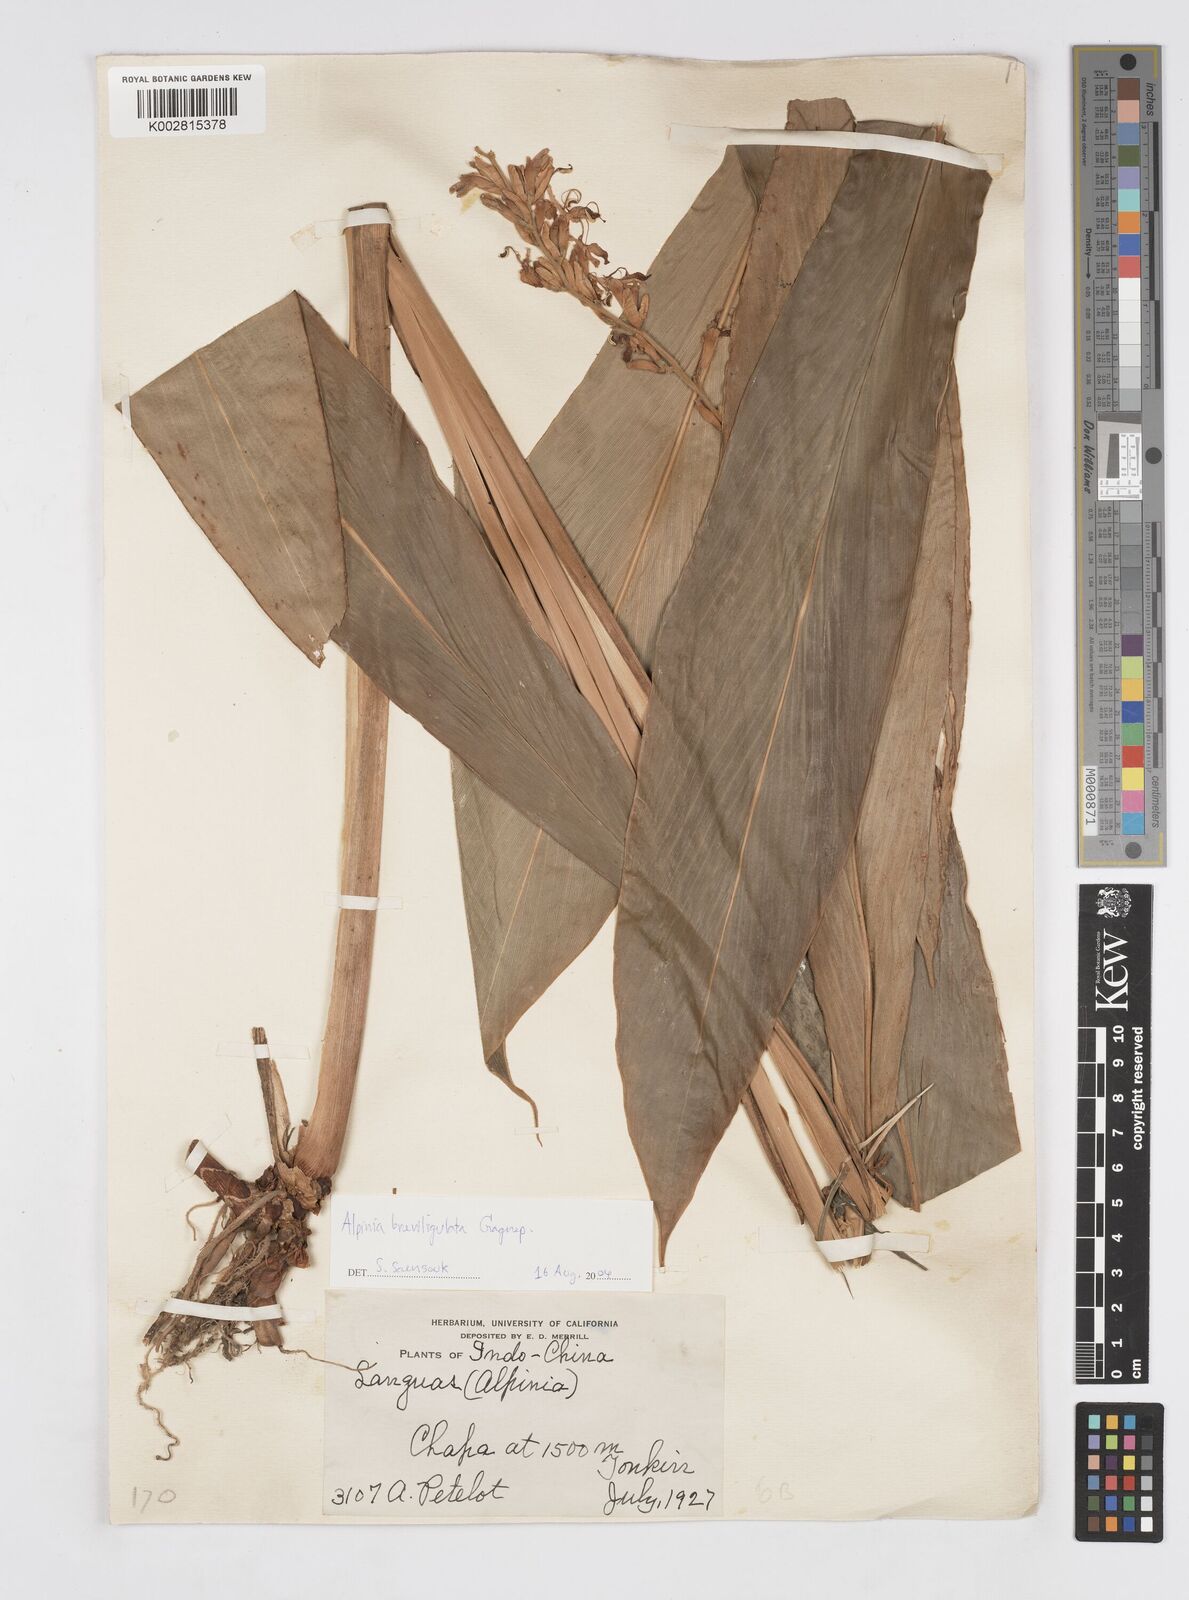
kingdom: Plantae
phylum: Tracheophyta
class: Liliopsida
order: Zingiberales
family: Zingiberaceae
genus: Alpinia
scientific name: Alpinia breviligulata
